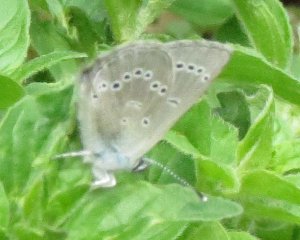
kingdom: Animalia
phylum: Arthropoda
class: Insecta
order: Lepidoptera
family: Lycaenidae
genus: Glaucopsyche
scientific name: Glaucopsyche lygdamus
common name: Silvery Blue
